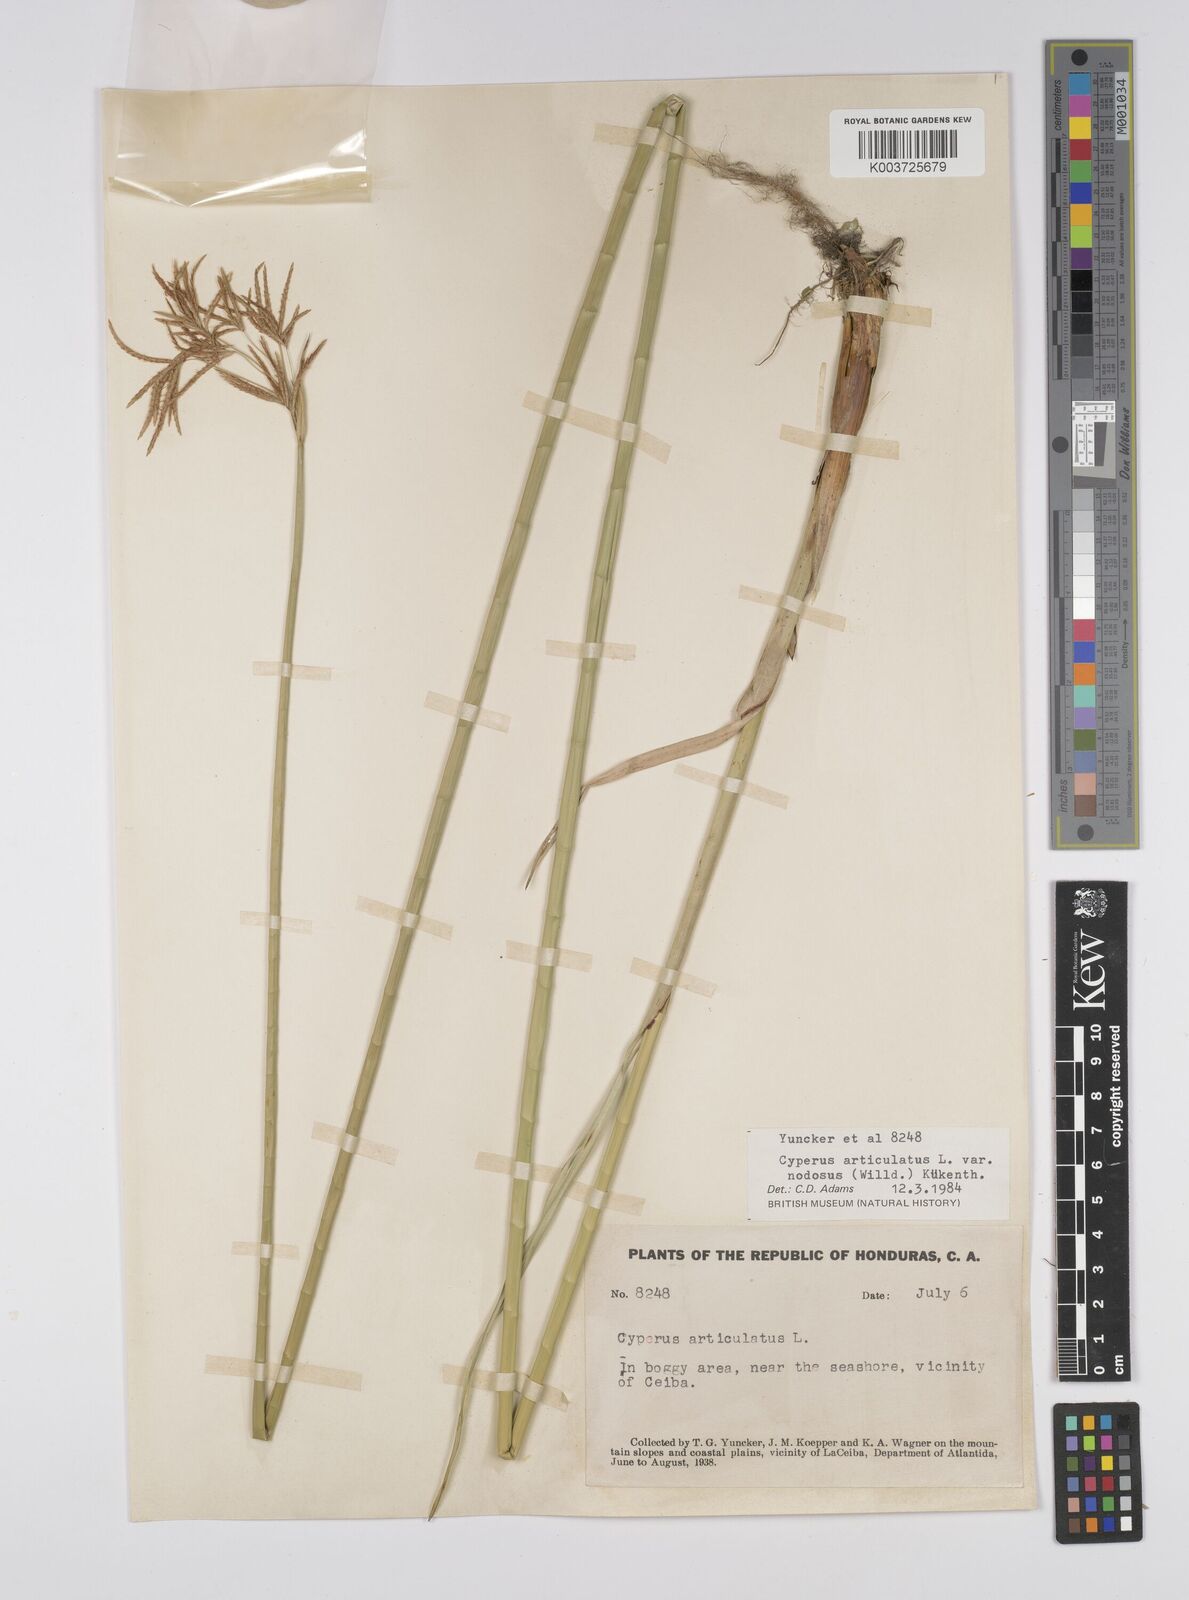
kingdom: Plantae
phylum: Tracheophyta
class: Liliopsida
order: Poales
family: Cyperaceae
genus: Cyperus
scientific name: Cyperus articulatus
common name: Jointed flatsedge
